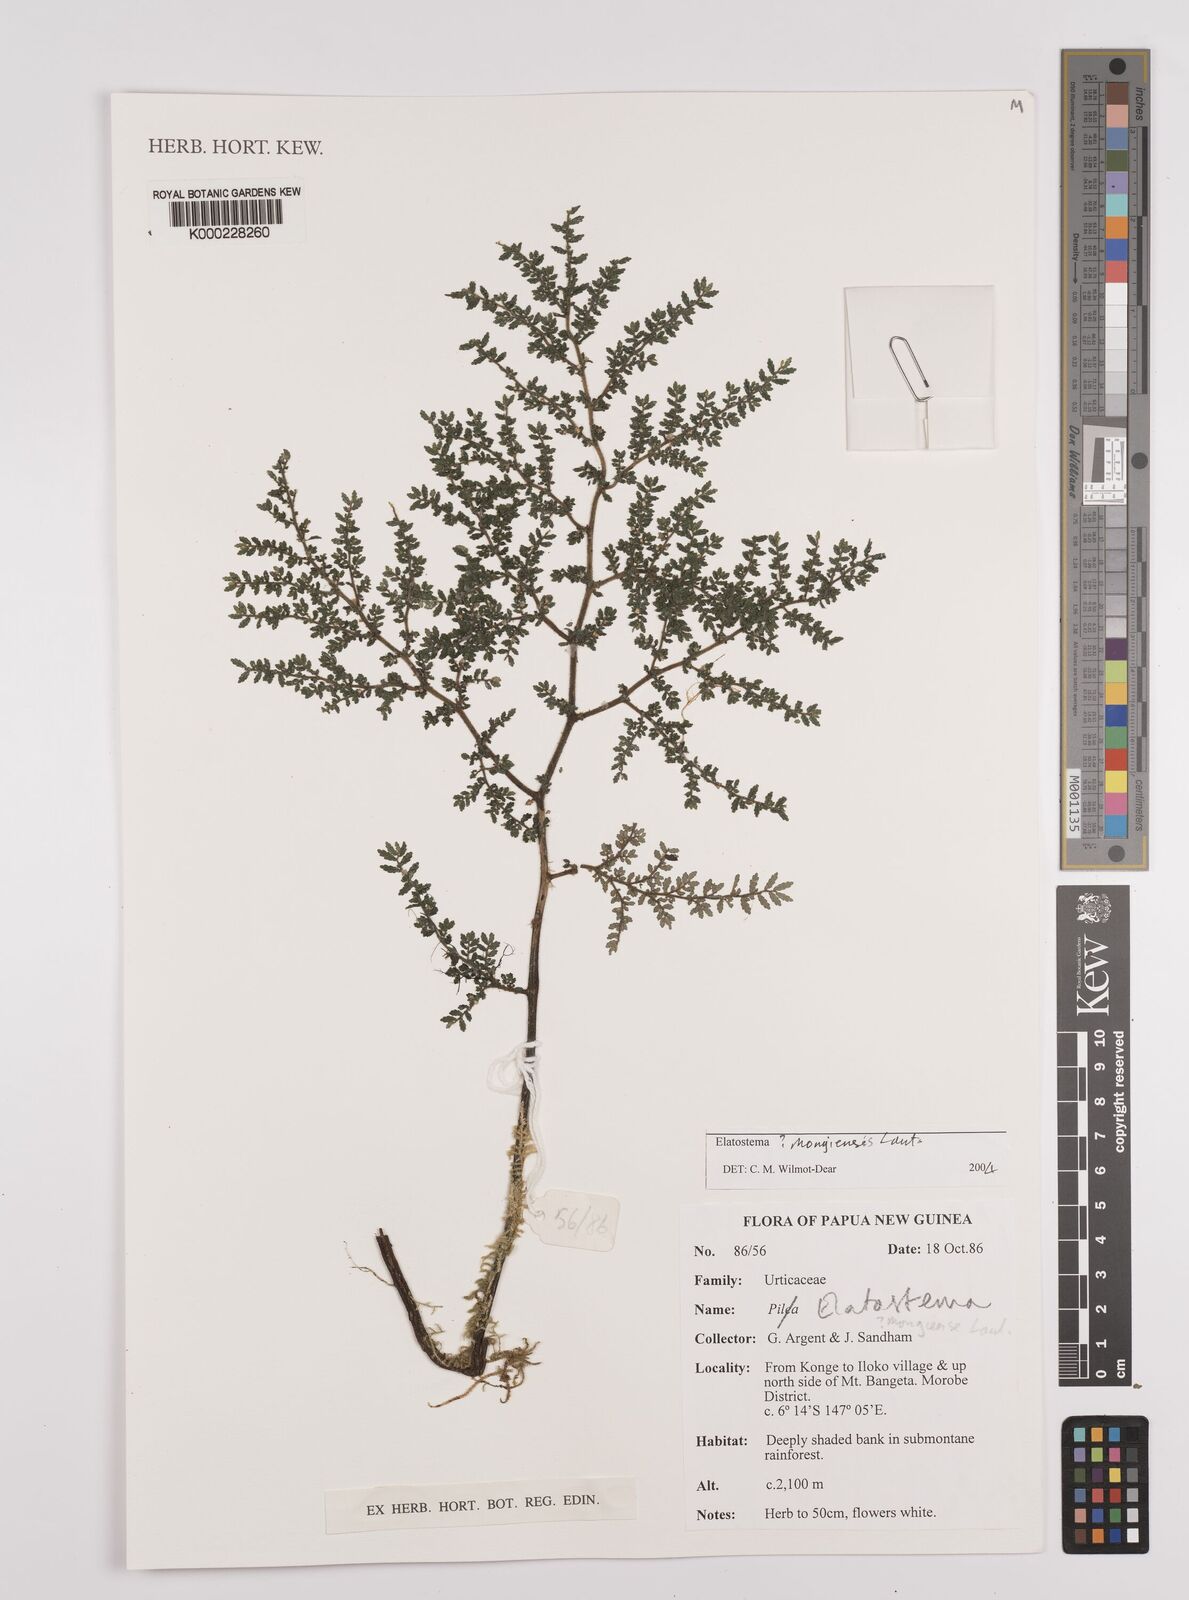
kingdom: Plantae
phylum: Tracheophyta
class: Magnoliopsida
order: Rosales
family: Urticaceae
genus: Elatostema
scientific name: Elatostema mongiensis
